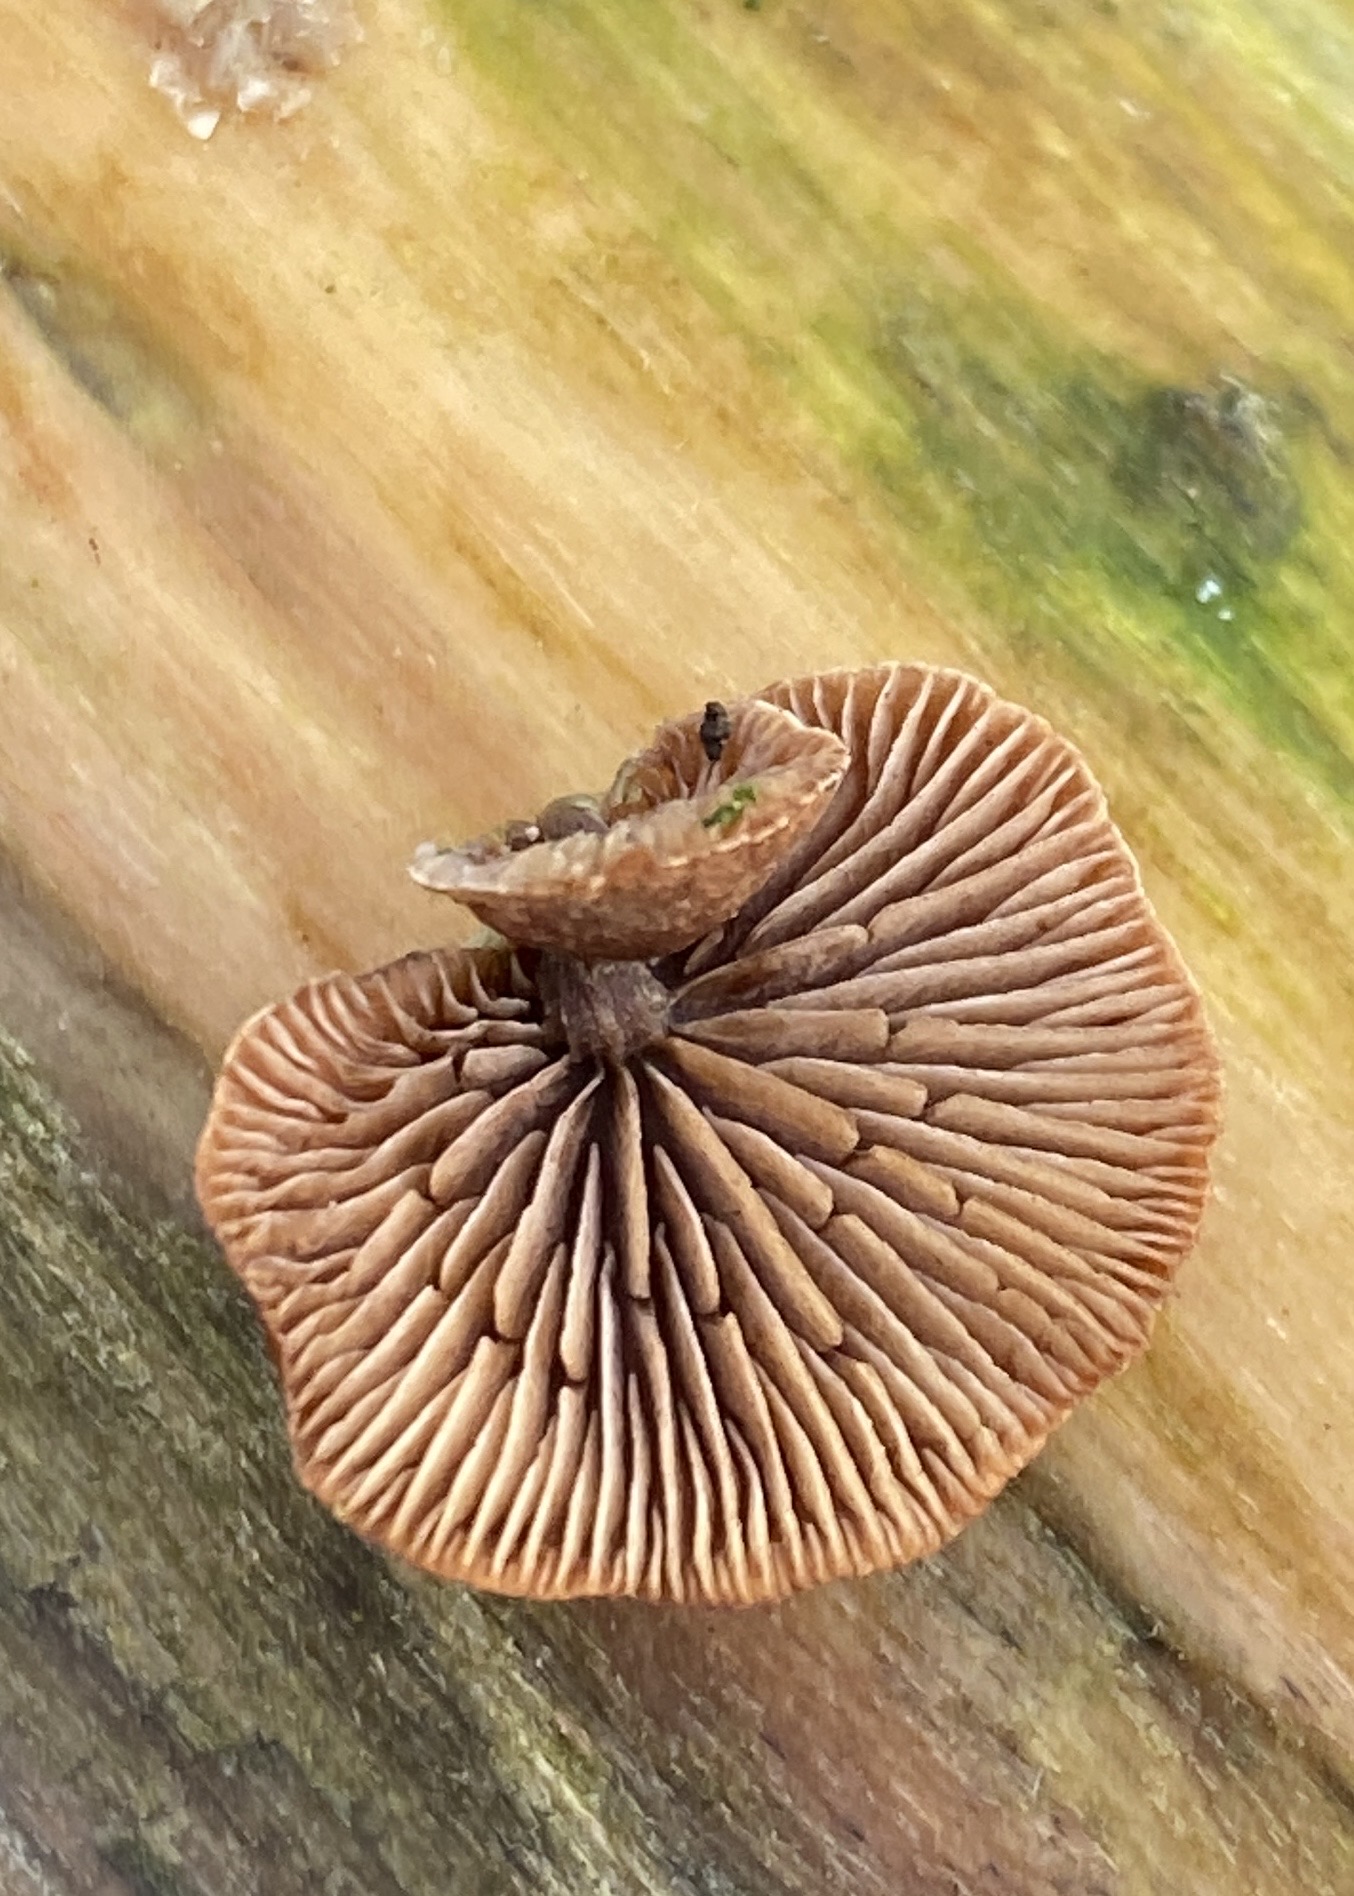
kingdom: Fungi
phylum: Basidiomycota
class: Agaricomycetes
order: Agaricales
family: Strophariaceae
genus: Deconica
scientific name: Deconica horizontalis
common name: ved-stråhat
